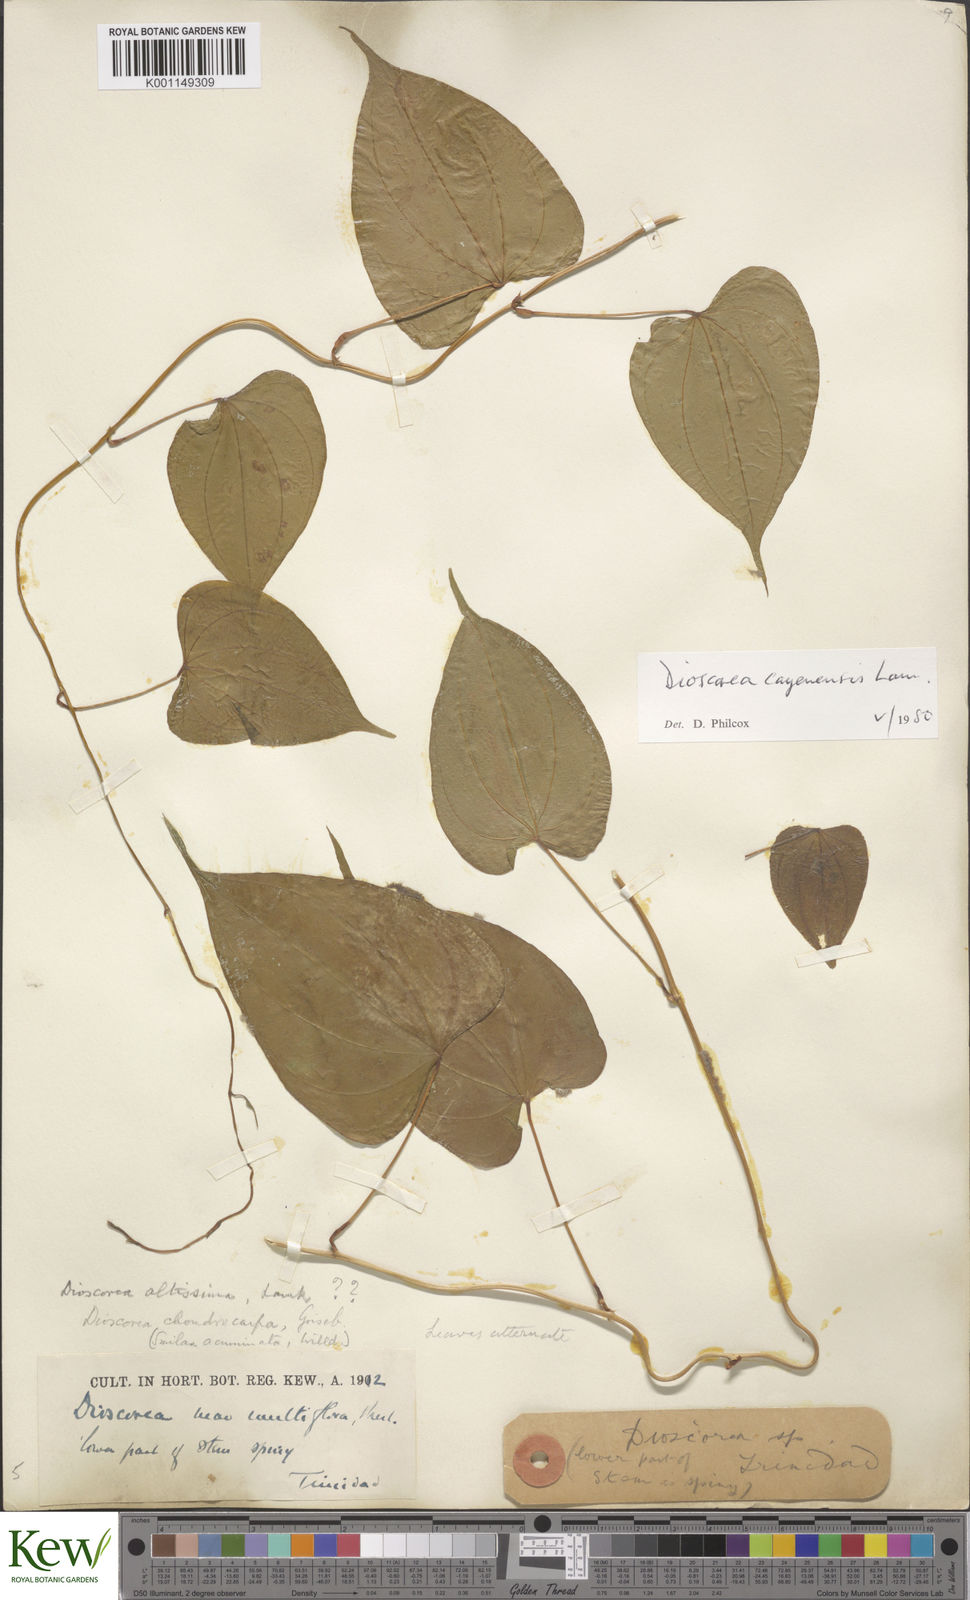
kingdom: Plantae
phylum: Tracheophyta
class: Liliopsida
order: Dioscoreales
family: Dioscoreaceae
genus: Dioscorea
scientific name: Dioscorea cayenensis
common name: Attoto yam
